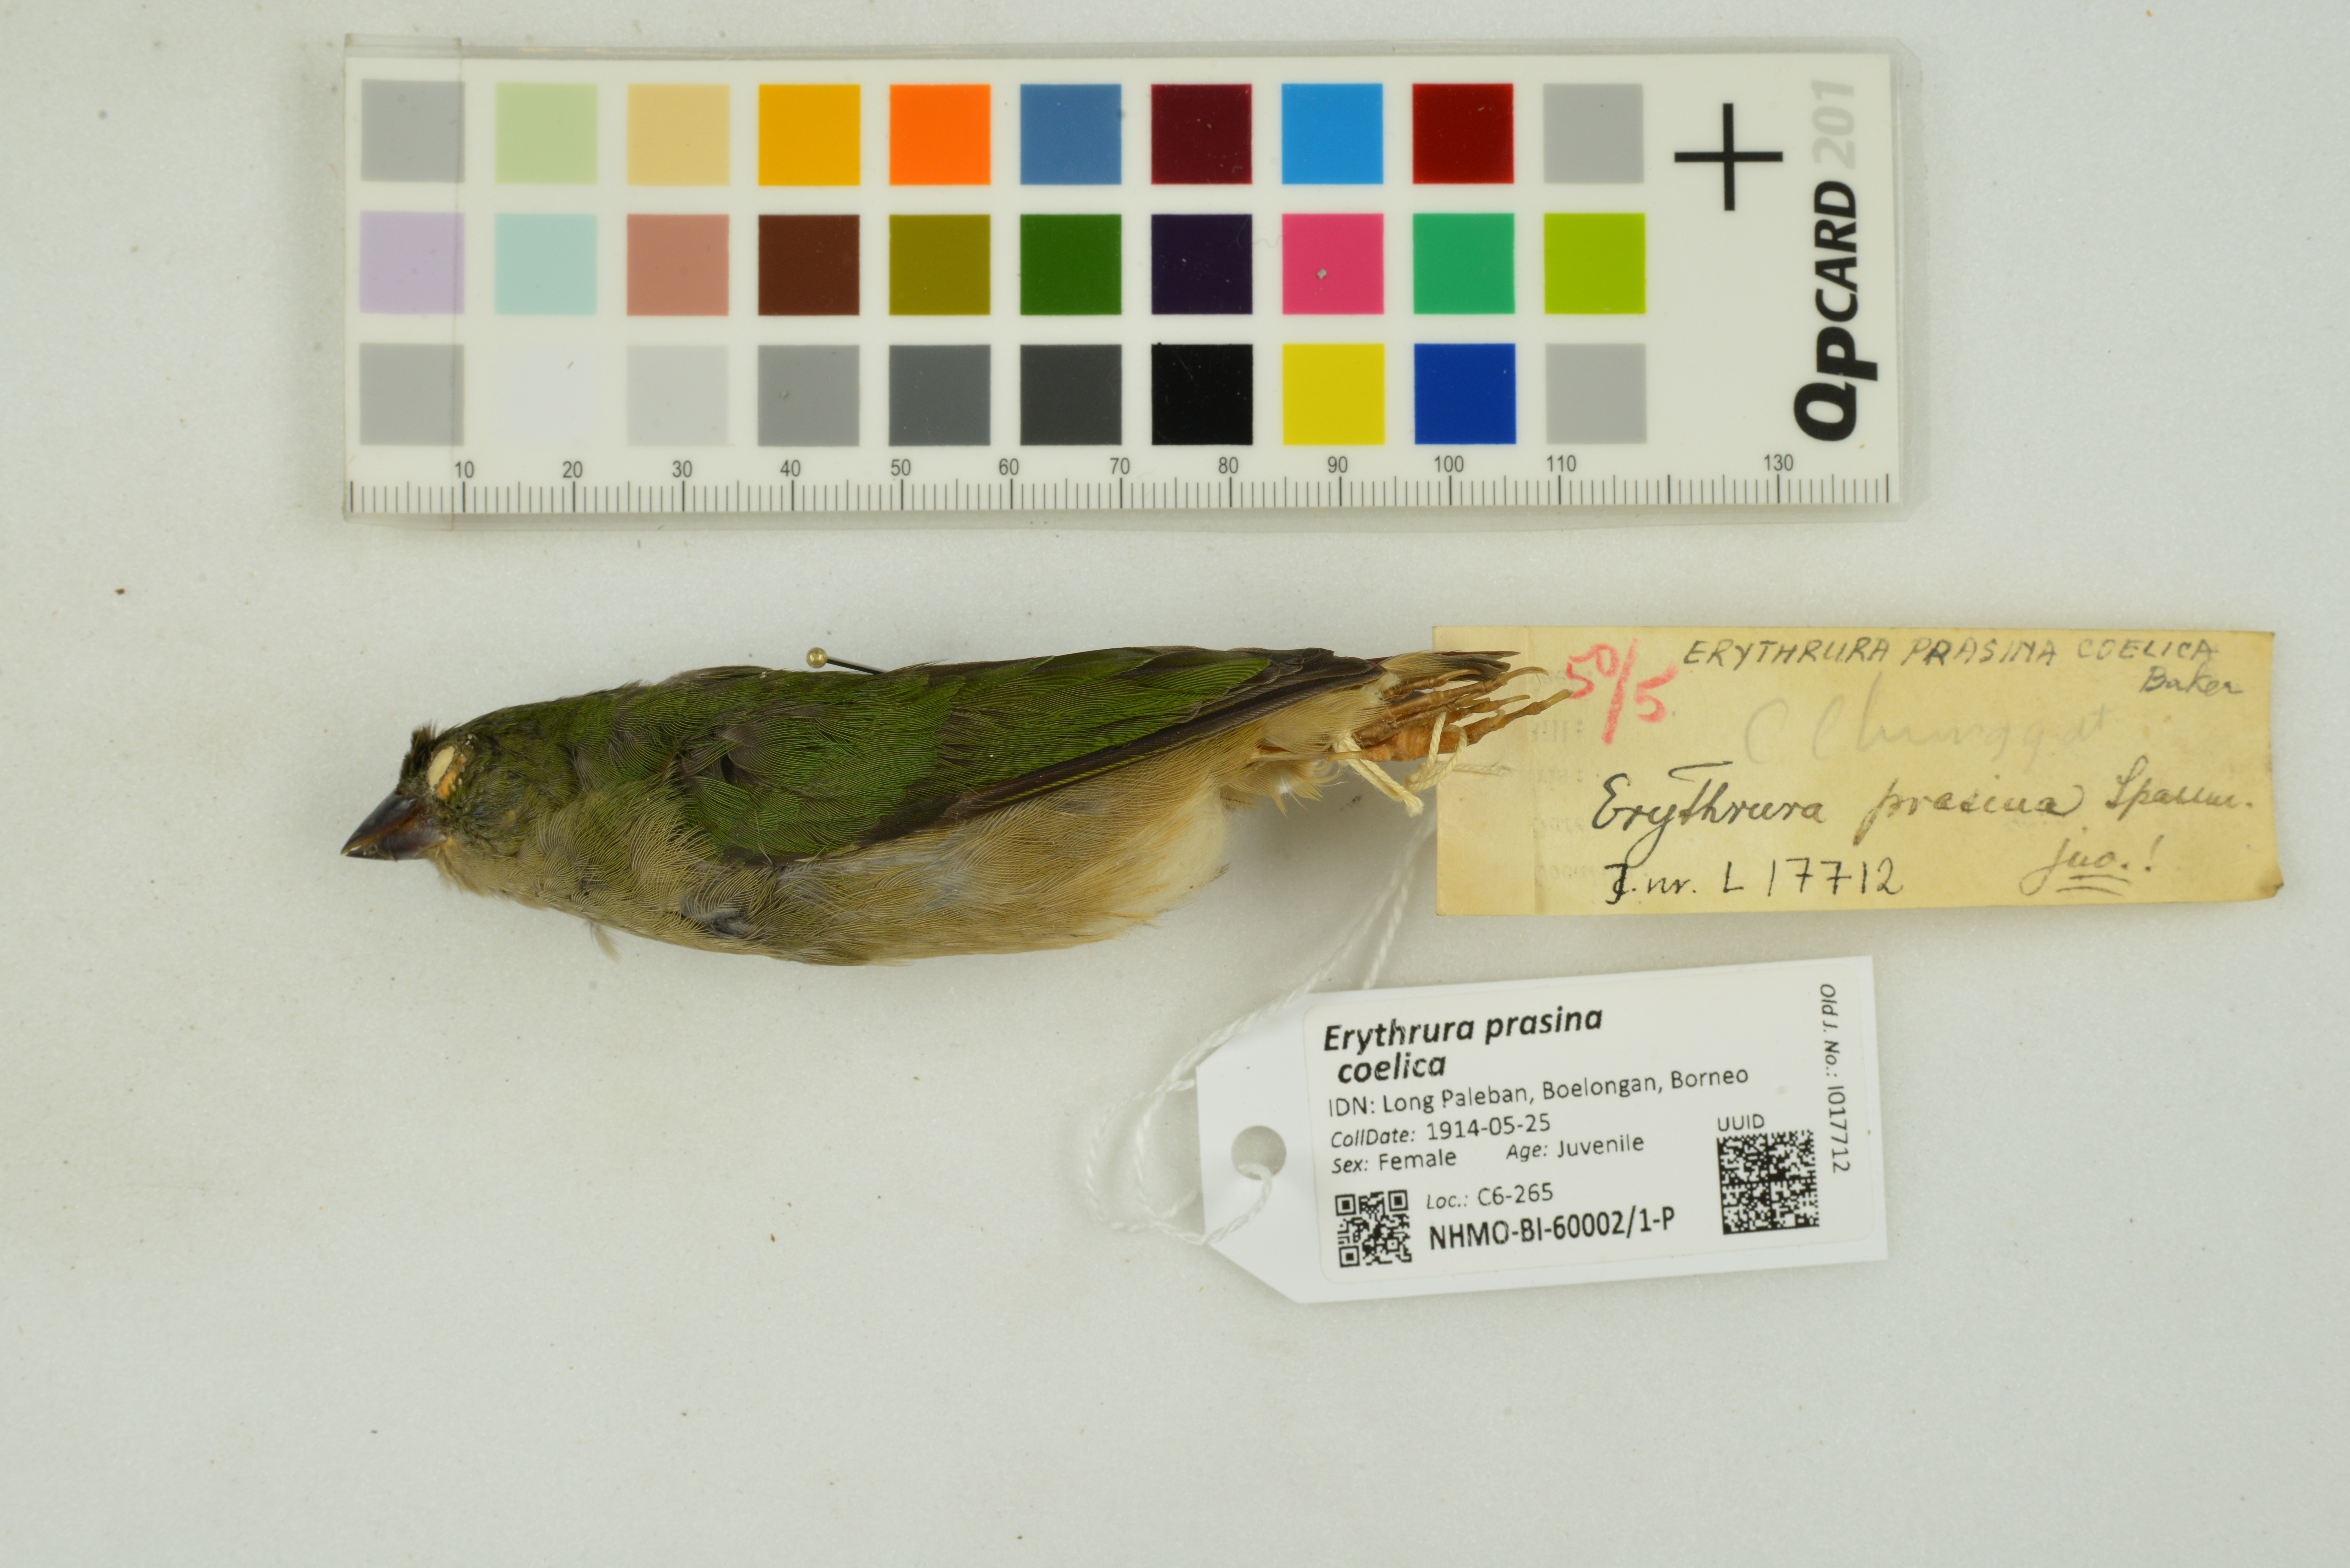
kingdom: Animalia
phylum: Chordata
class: Aves
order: Passeriformes
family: Estrildidae
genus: Erythrura
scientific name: Erythrura prasina
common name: Pin-tailed parrotfinch
